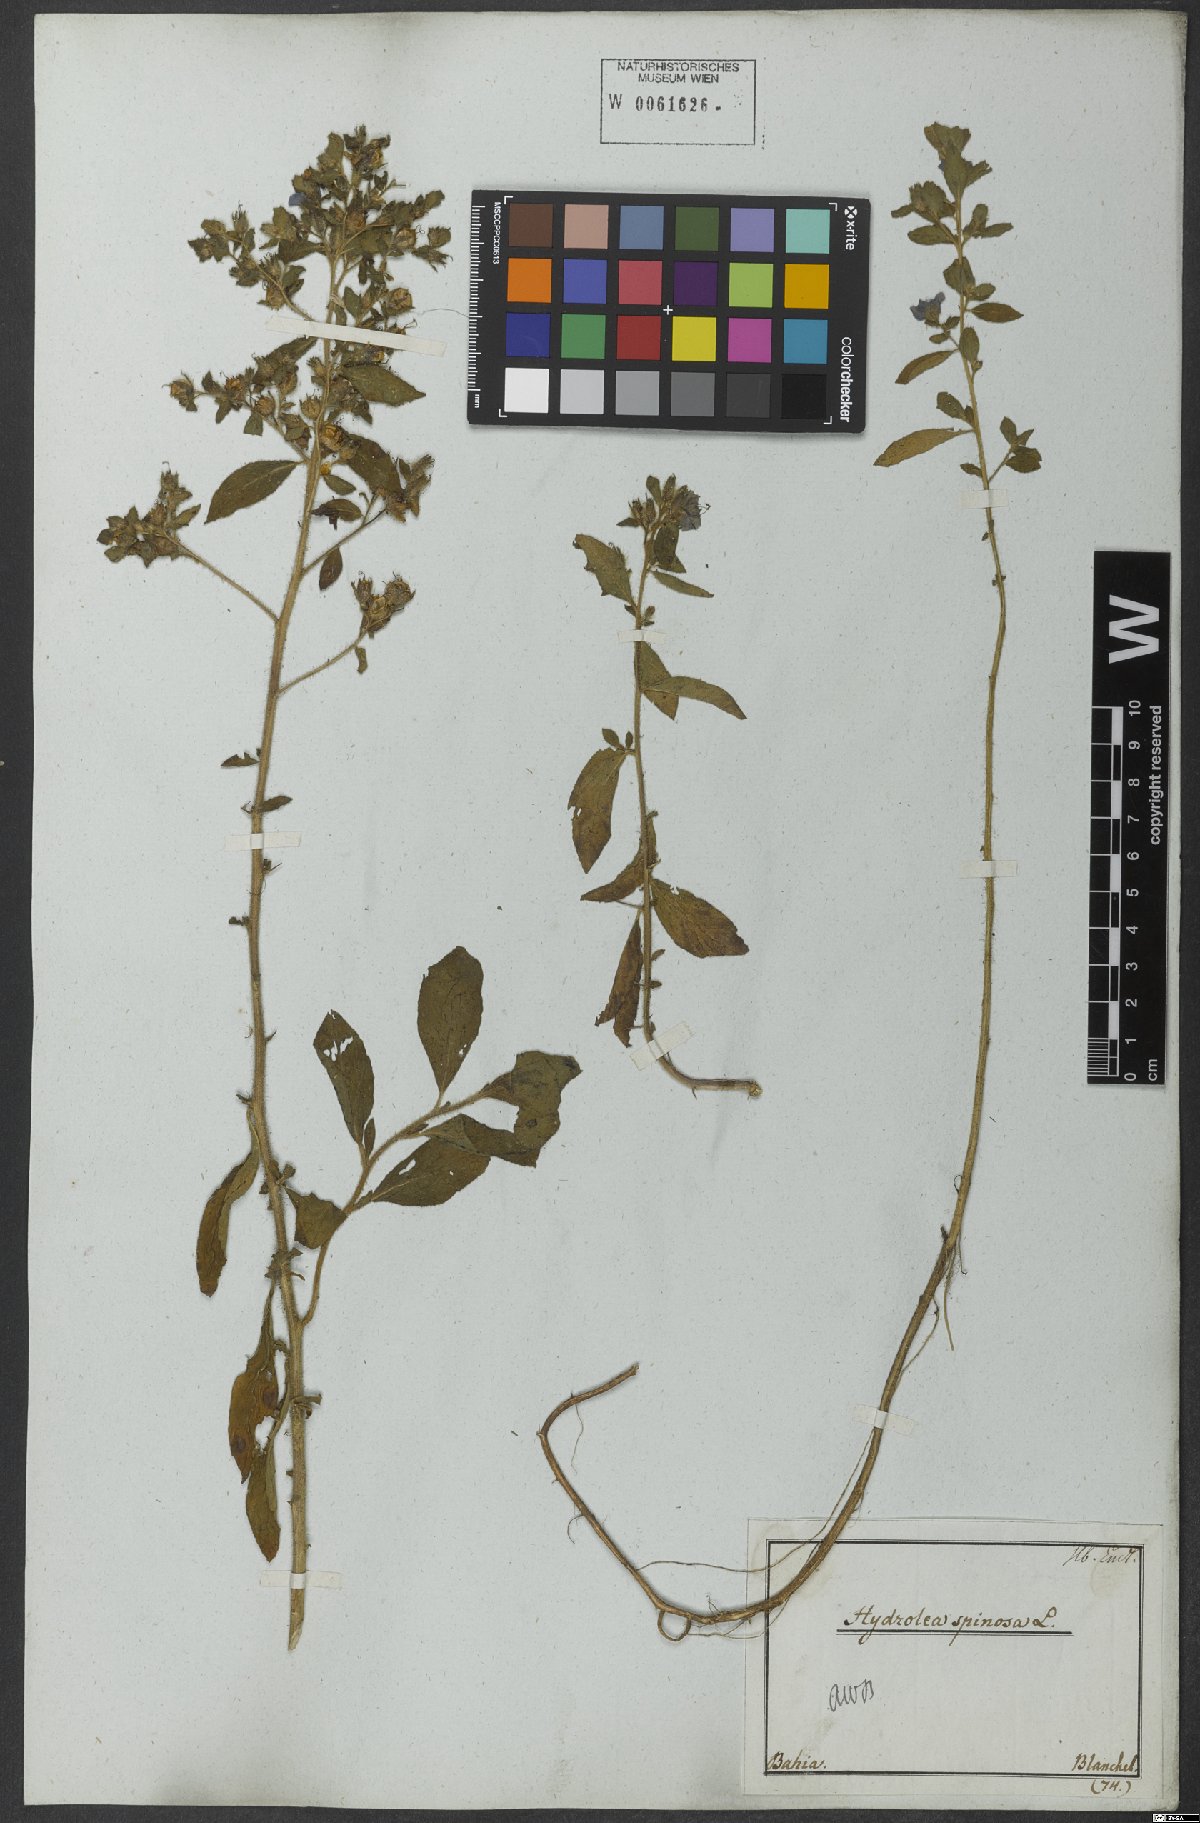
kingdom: Plantae
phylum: Tracheophyta
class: Magnoliopsida
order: Solanales
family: Hydroleaceae
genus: Hydrolea
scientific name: Hydrolea spinosa
